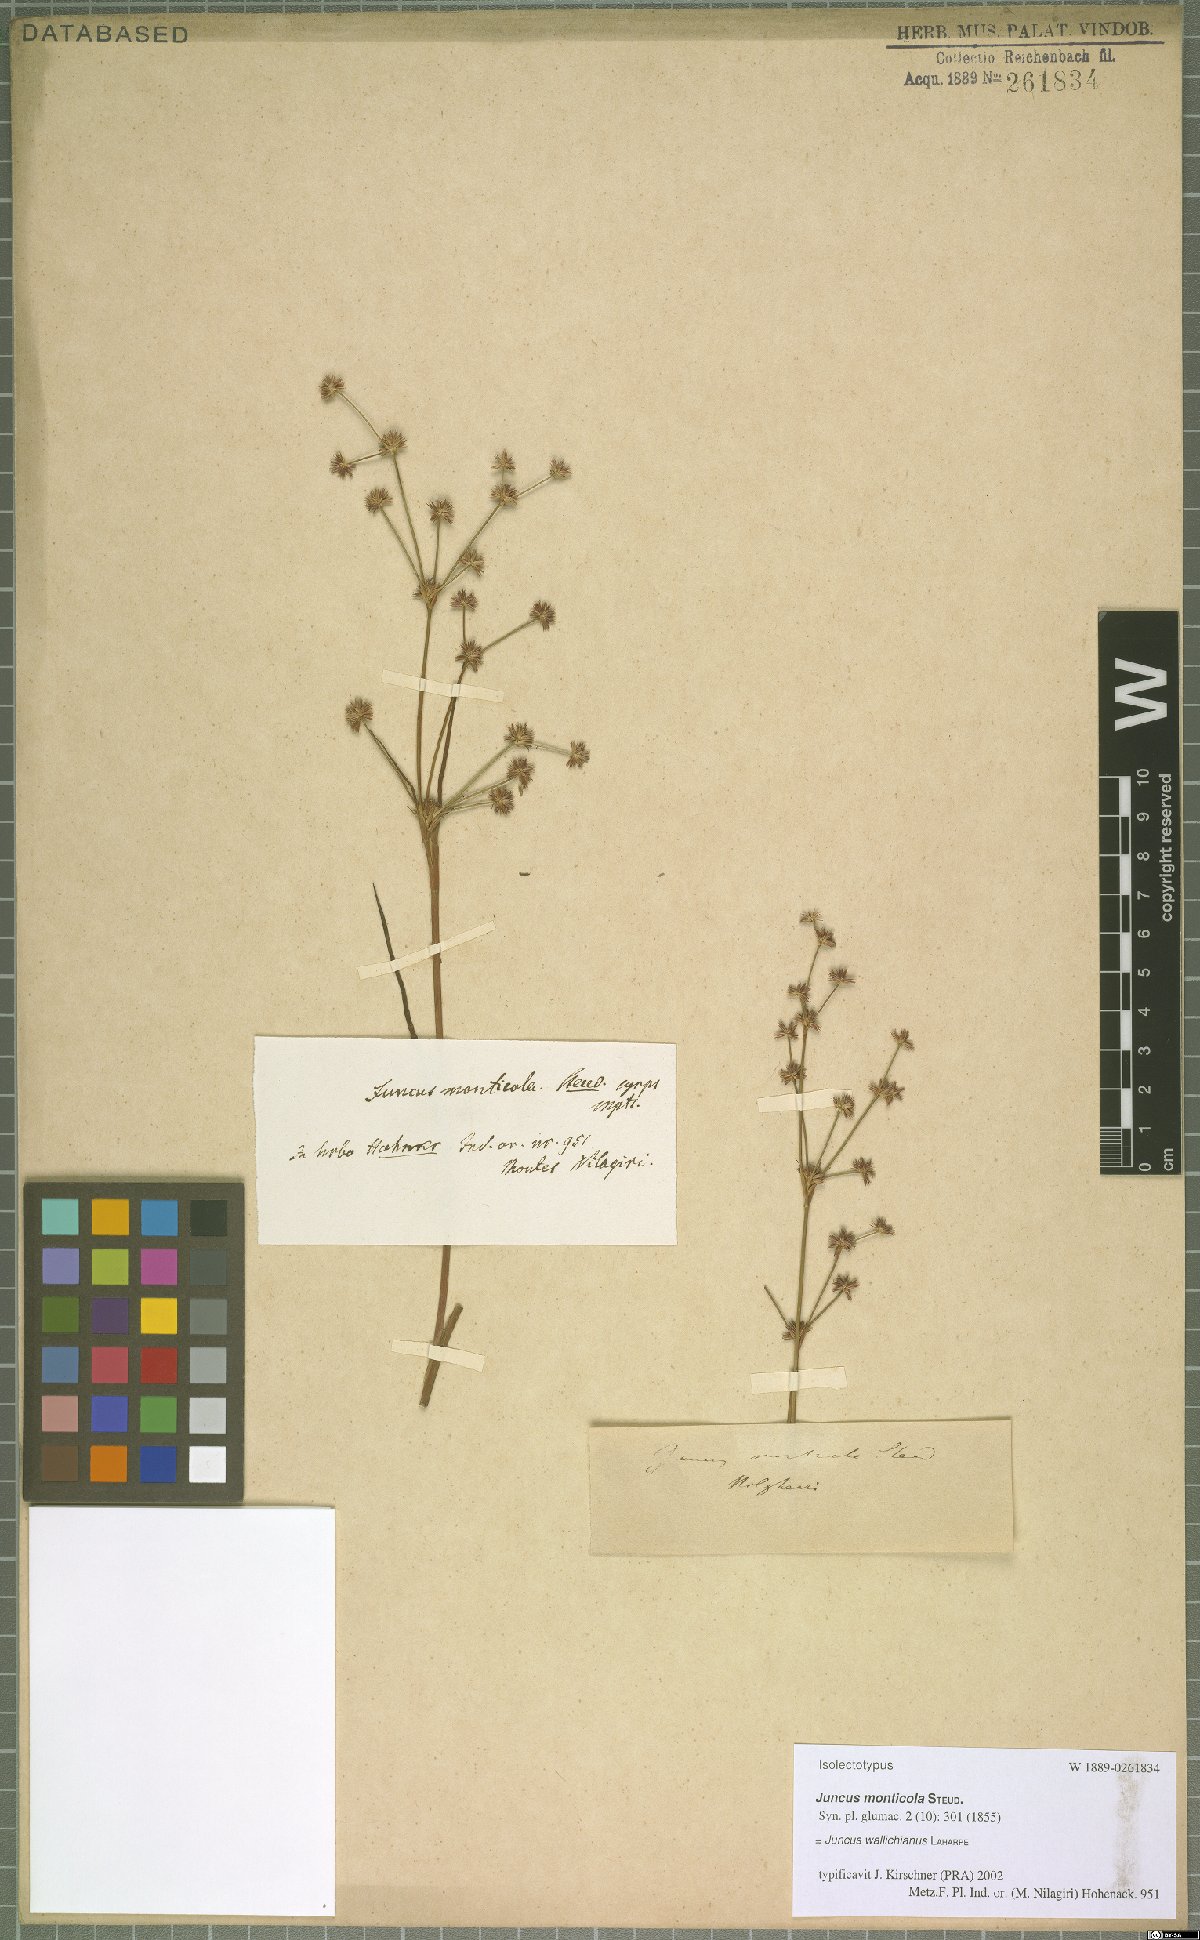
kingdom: Plantae
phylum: Tracheophyta
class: Liliopsida
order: Poales
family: Juncaceae
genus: Juncus
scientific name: Juncus wallichianus
